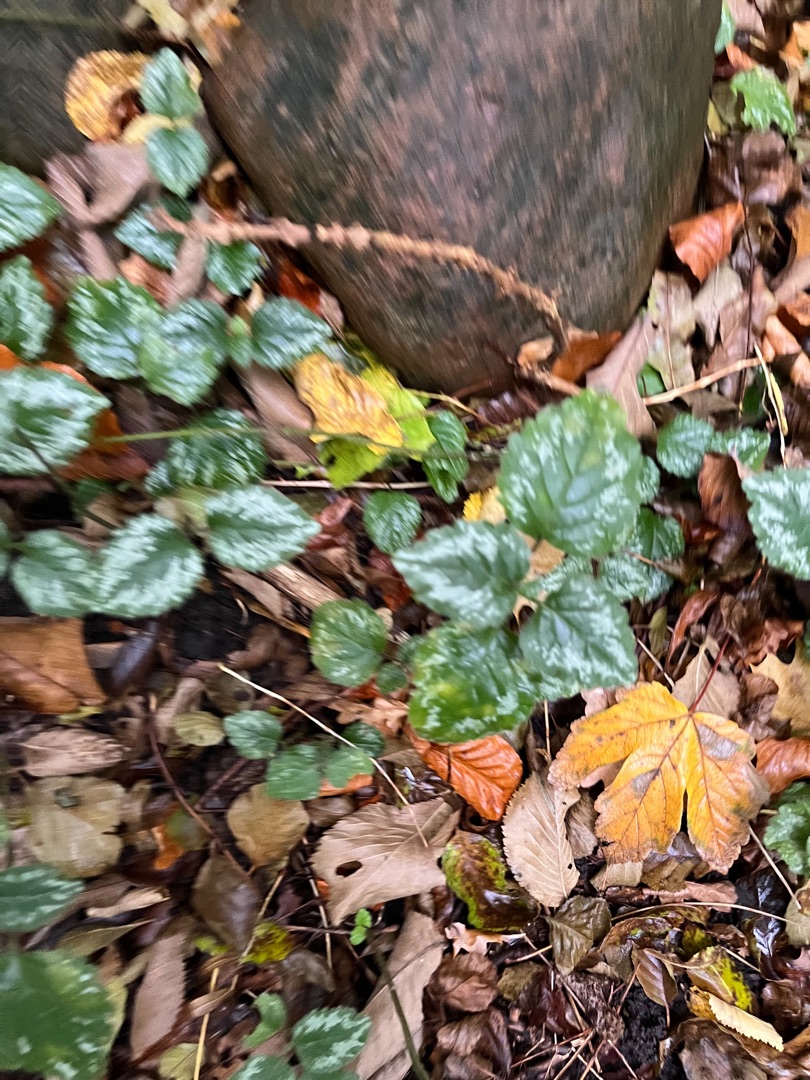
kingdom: Plantae
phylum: Tracheophyta
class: Magnoliopsida
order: Lamiales
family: Lamiaceae
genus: Lamium
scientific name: Lamium galeobdolon
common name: Have-guldnælde
